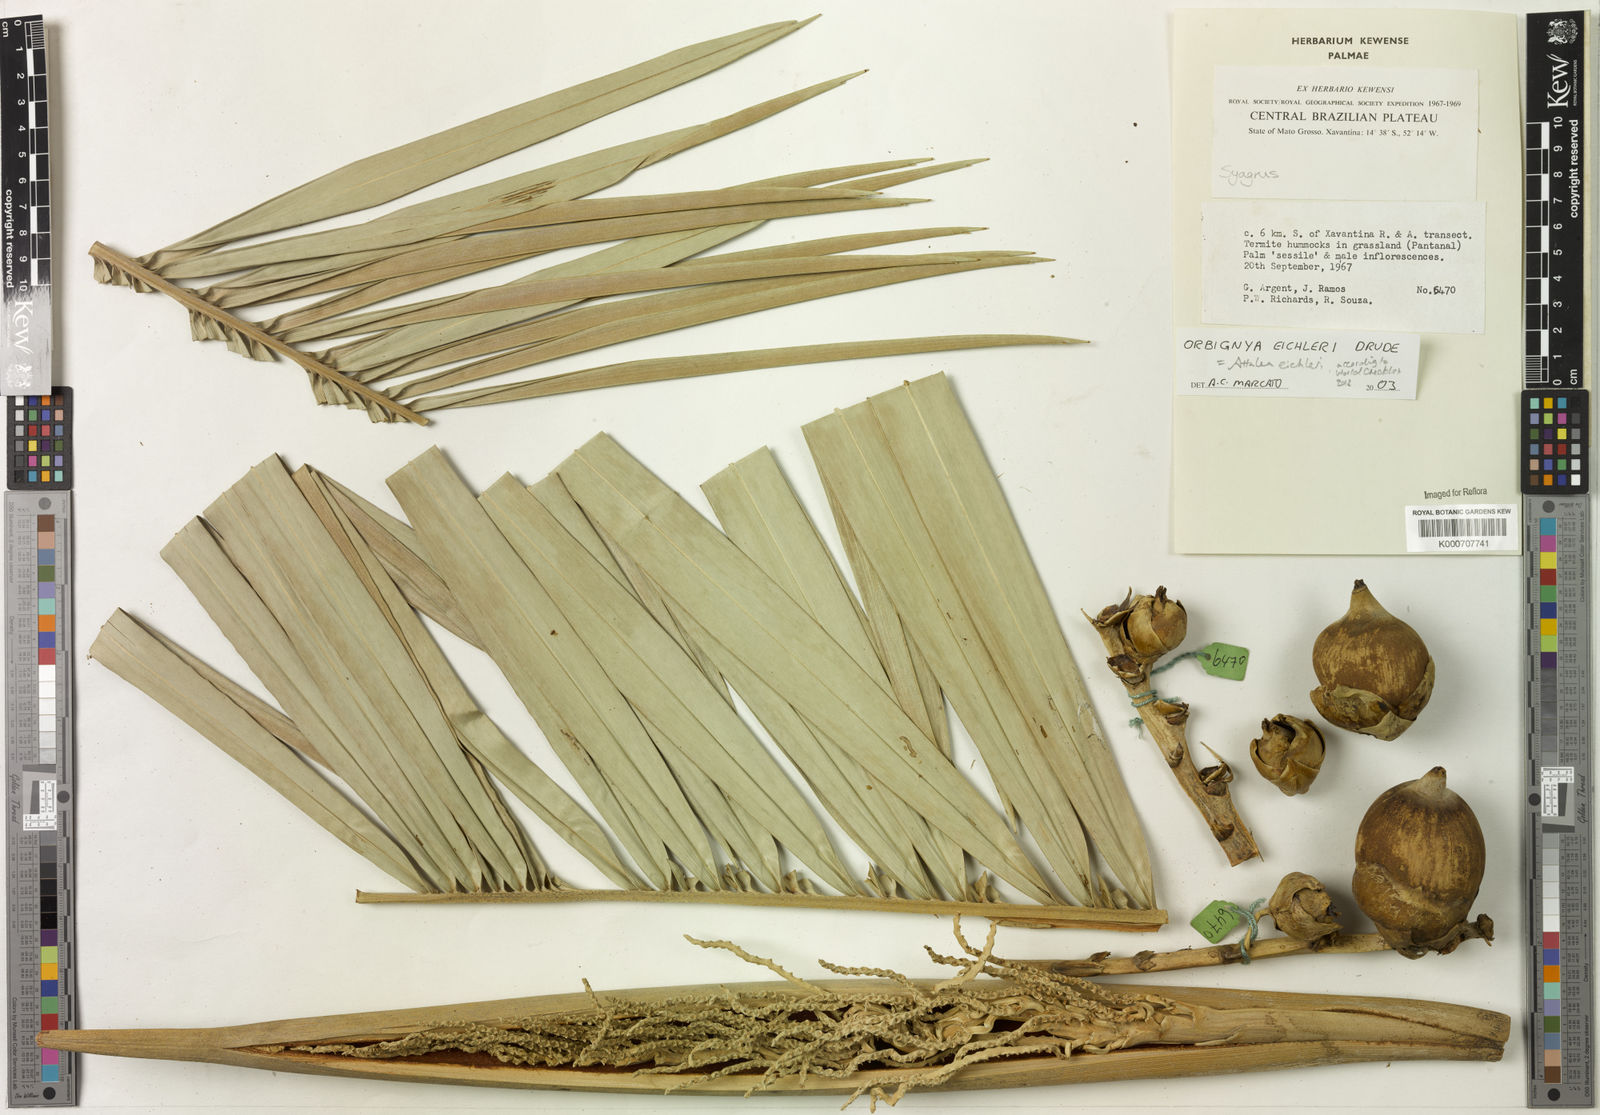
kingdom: Plantae
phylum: Tracheophyta
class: Liliopsida
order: Arecales
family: Arecaceae
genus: Attalea
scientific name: Attalea eichleri
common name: Large-fruit yagua palm
